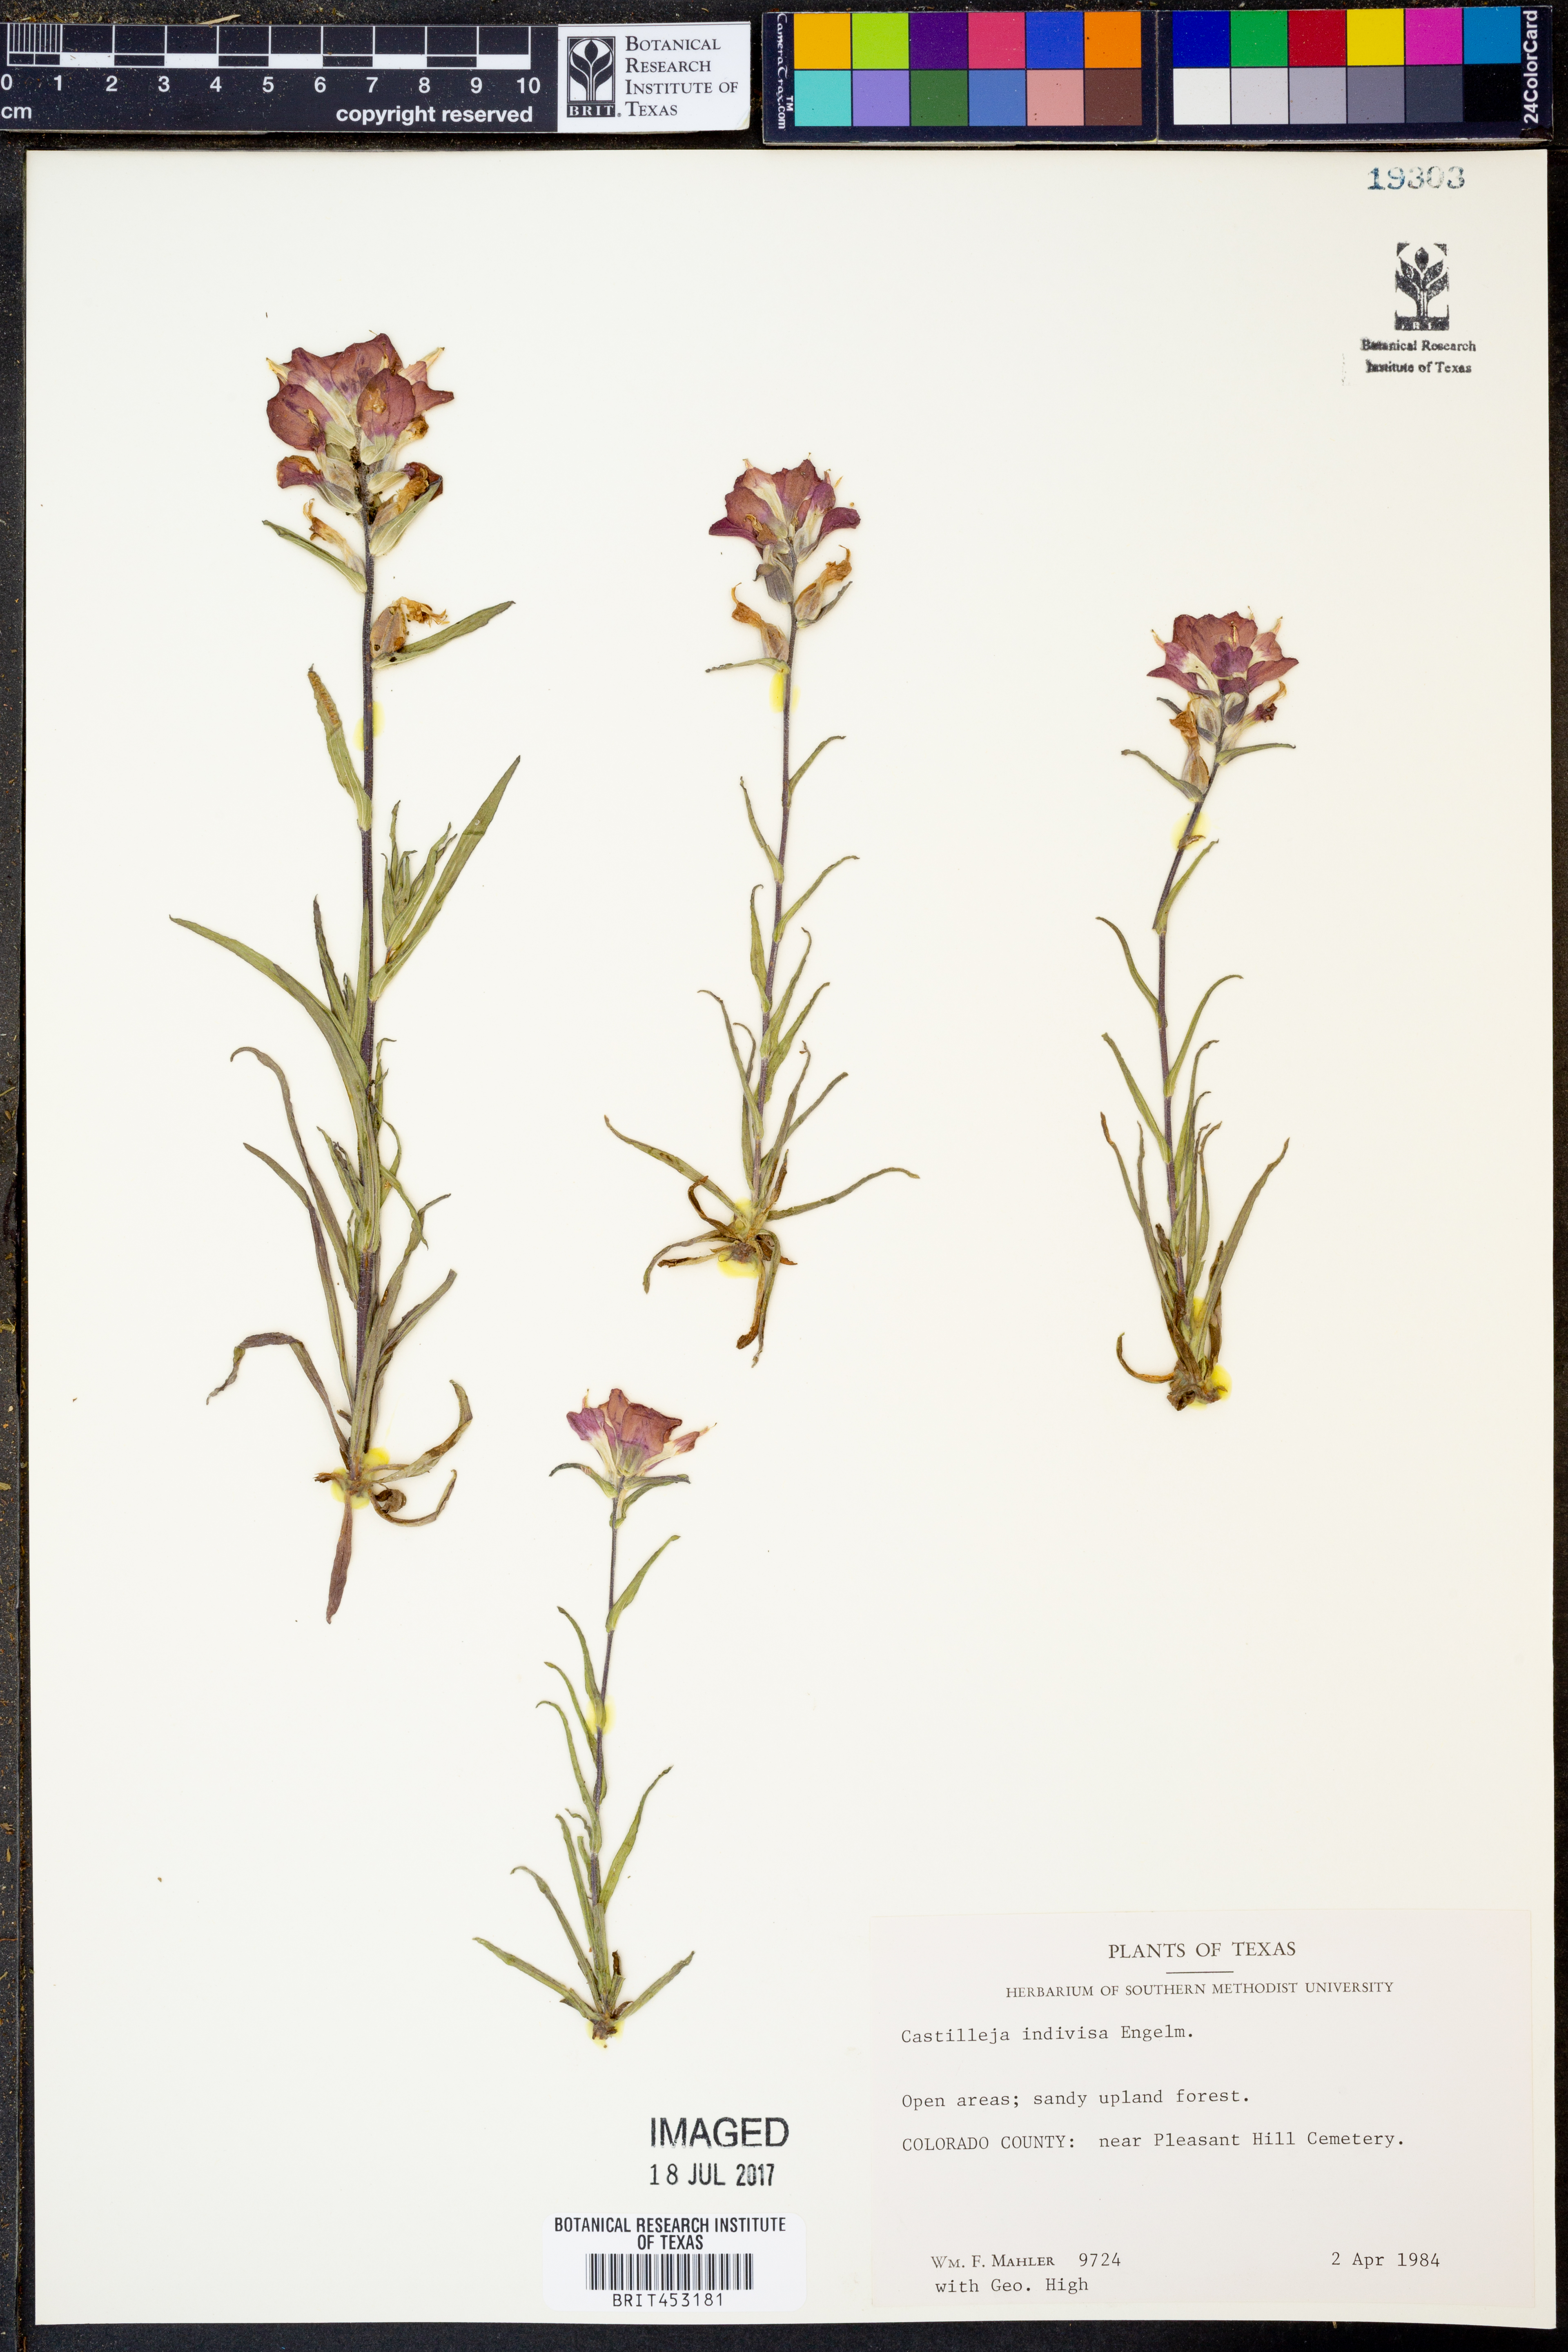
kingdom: Plantae
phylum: Tracheophyta
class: Magnoliopsida
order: Lamiales
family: Orobanchaceae
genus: Castilleja
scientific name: Castilleja indivisa
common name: Texas paintbrush
